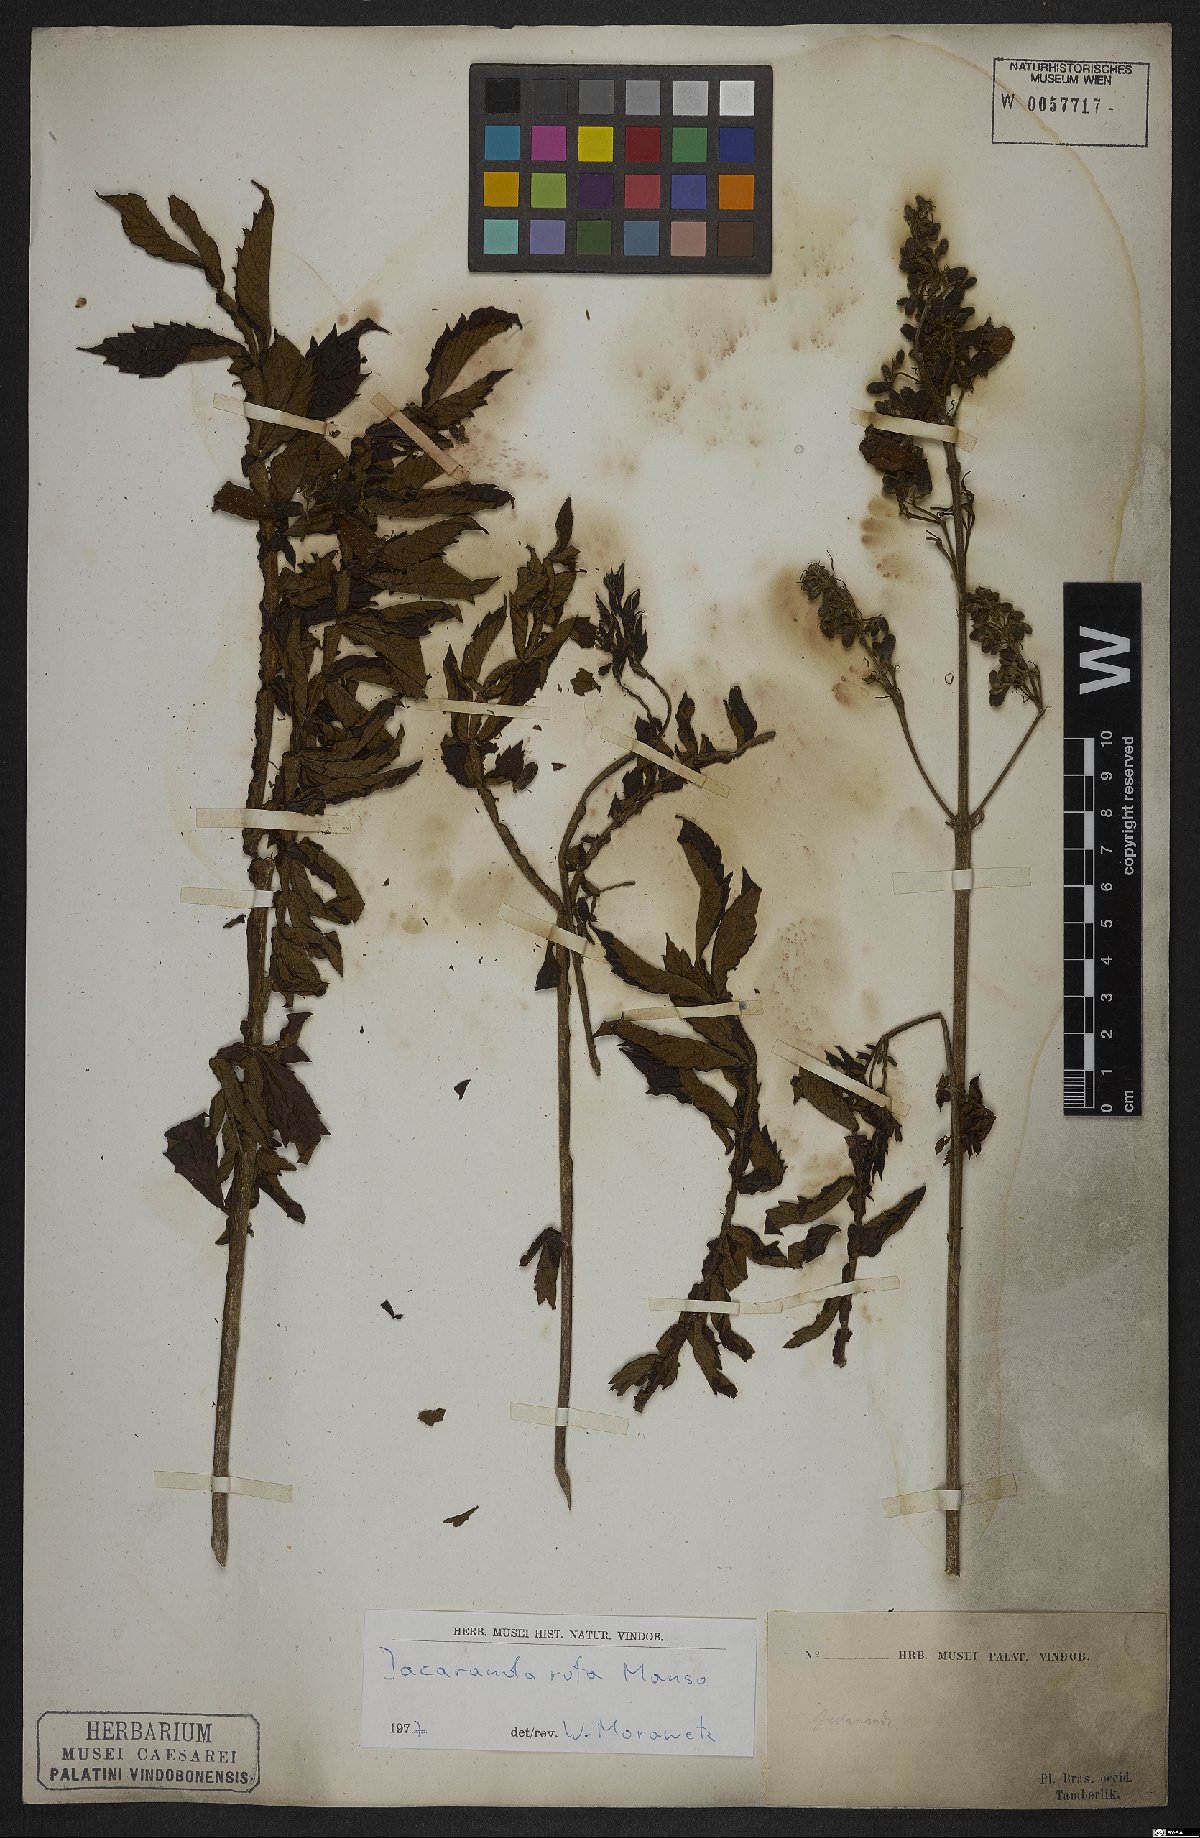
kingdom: Plantae
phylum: Tracheophyta
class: Magnoliopsida
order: Lamiales
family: Bignoniaceae
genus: Jacaranda
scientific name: Jacaranda rufa
